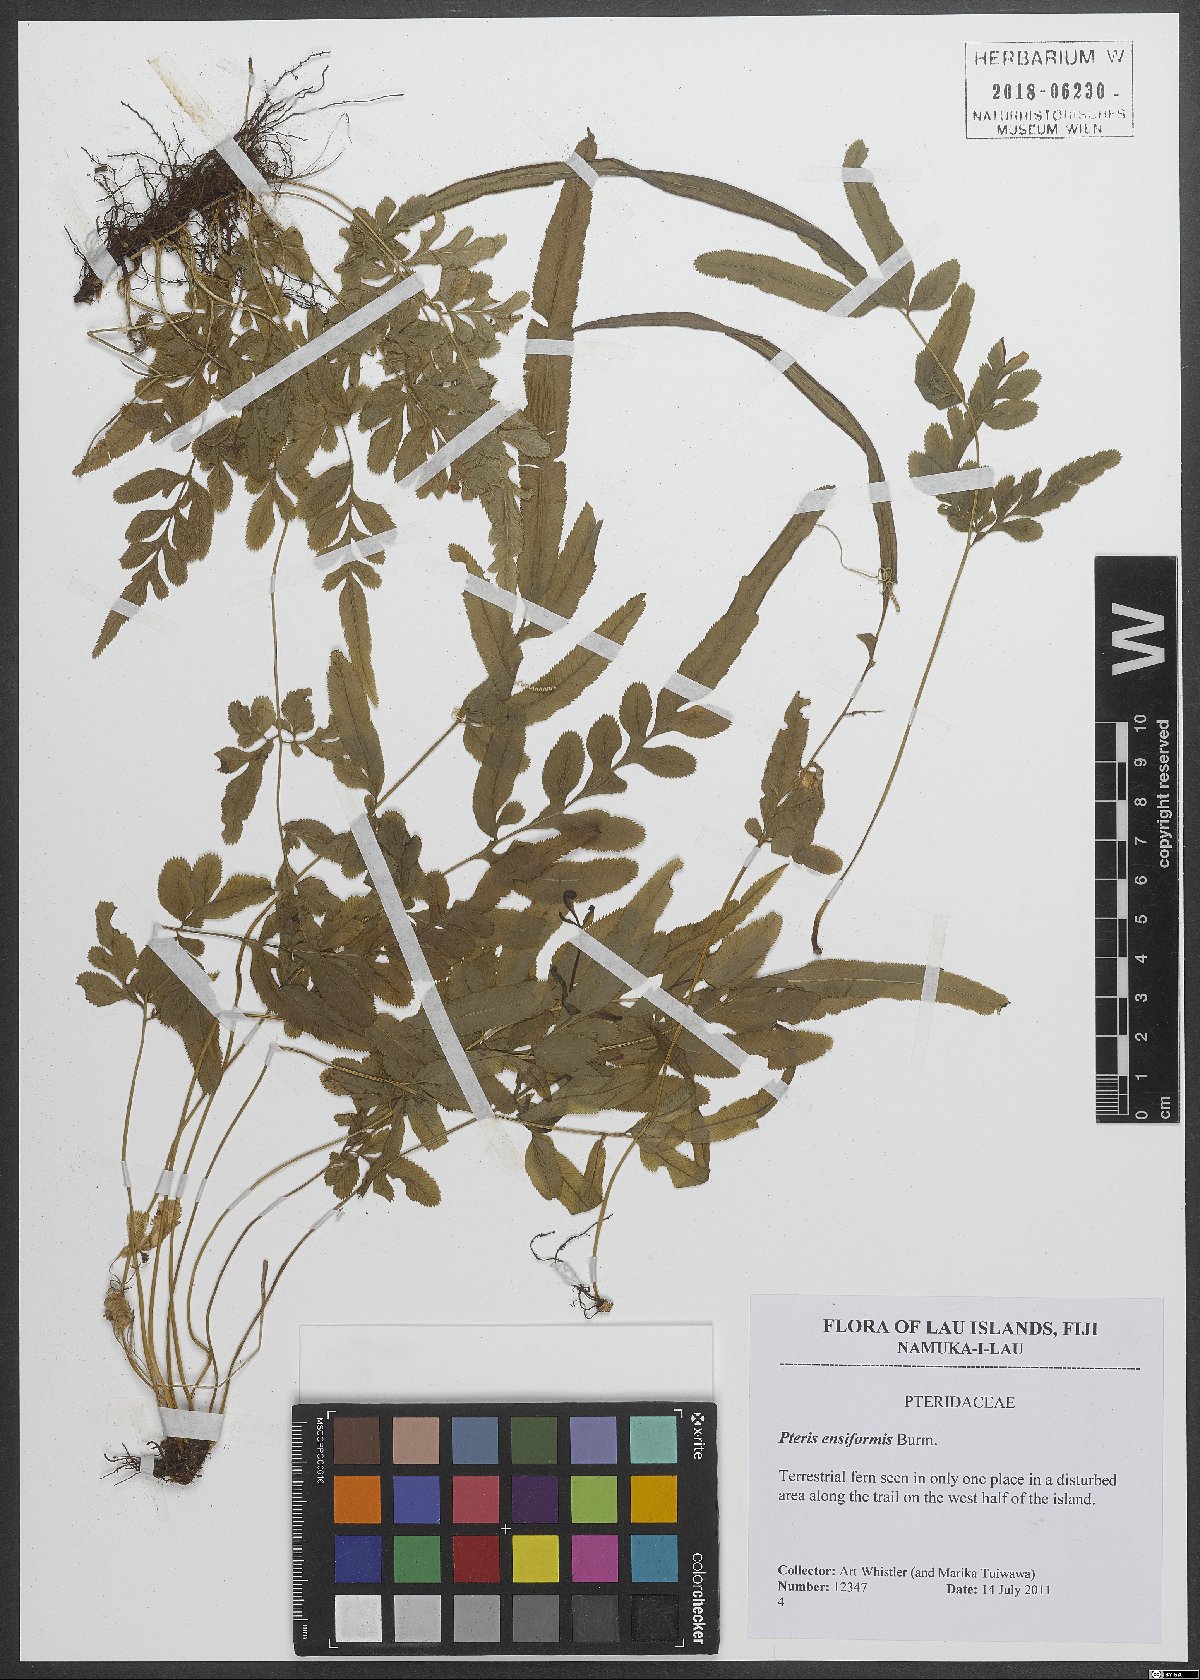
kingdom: Plantae
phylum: Tracheophyta
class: Polypodiopsida
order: Polypodiales
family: Pteridaceae
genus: Pteris
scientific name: Pteris ensiformis
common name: Sword brake
